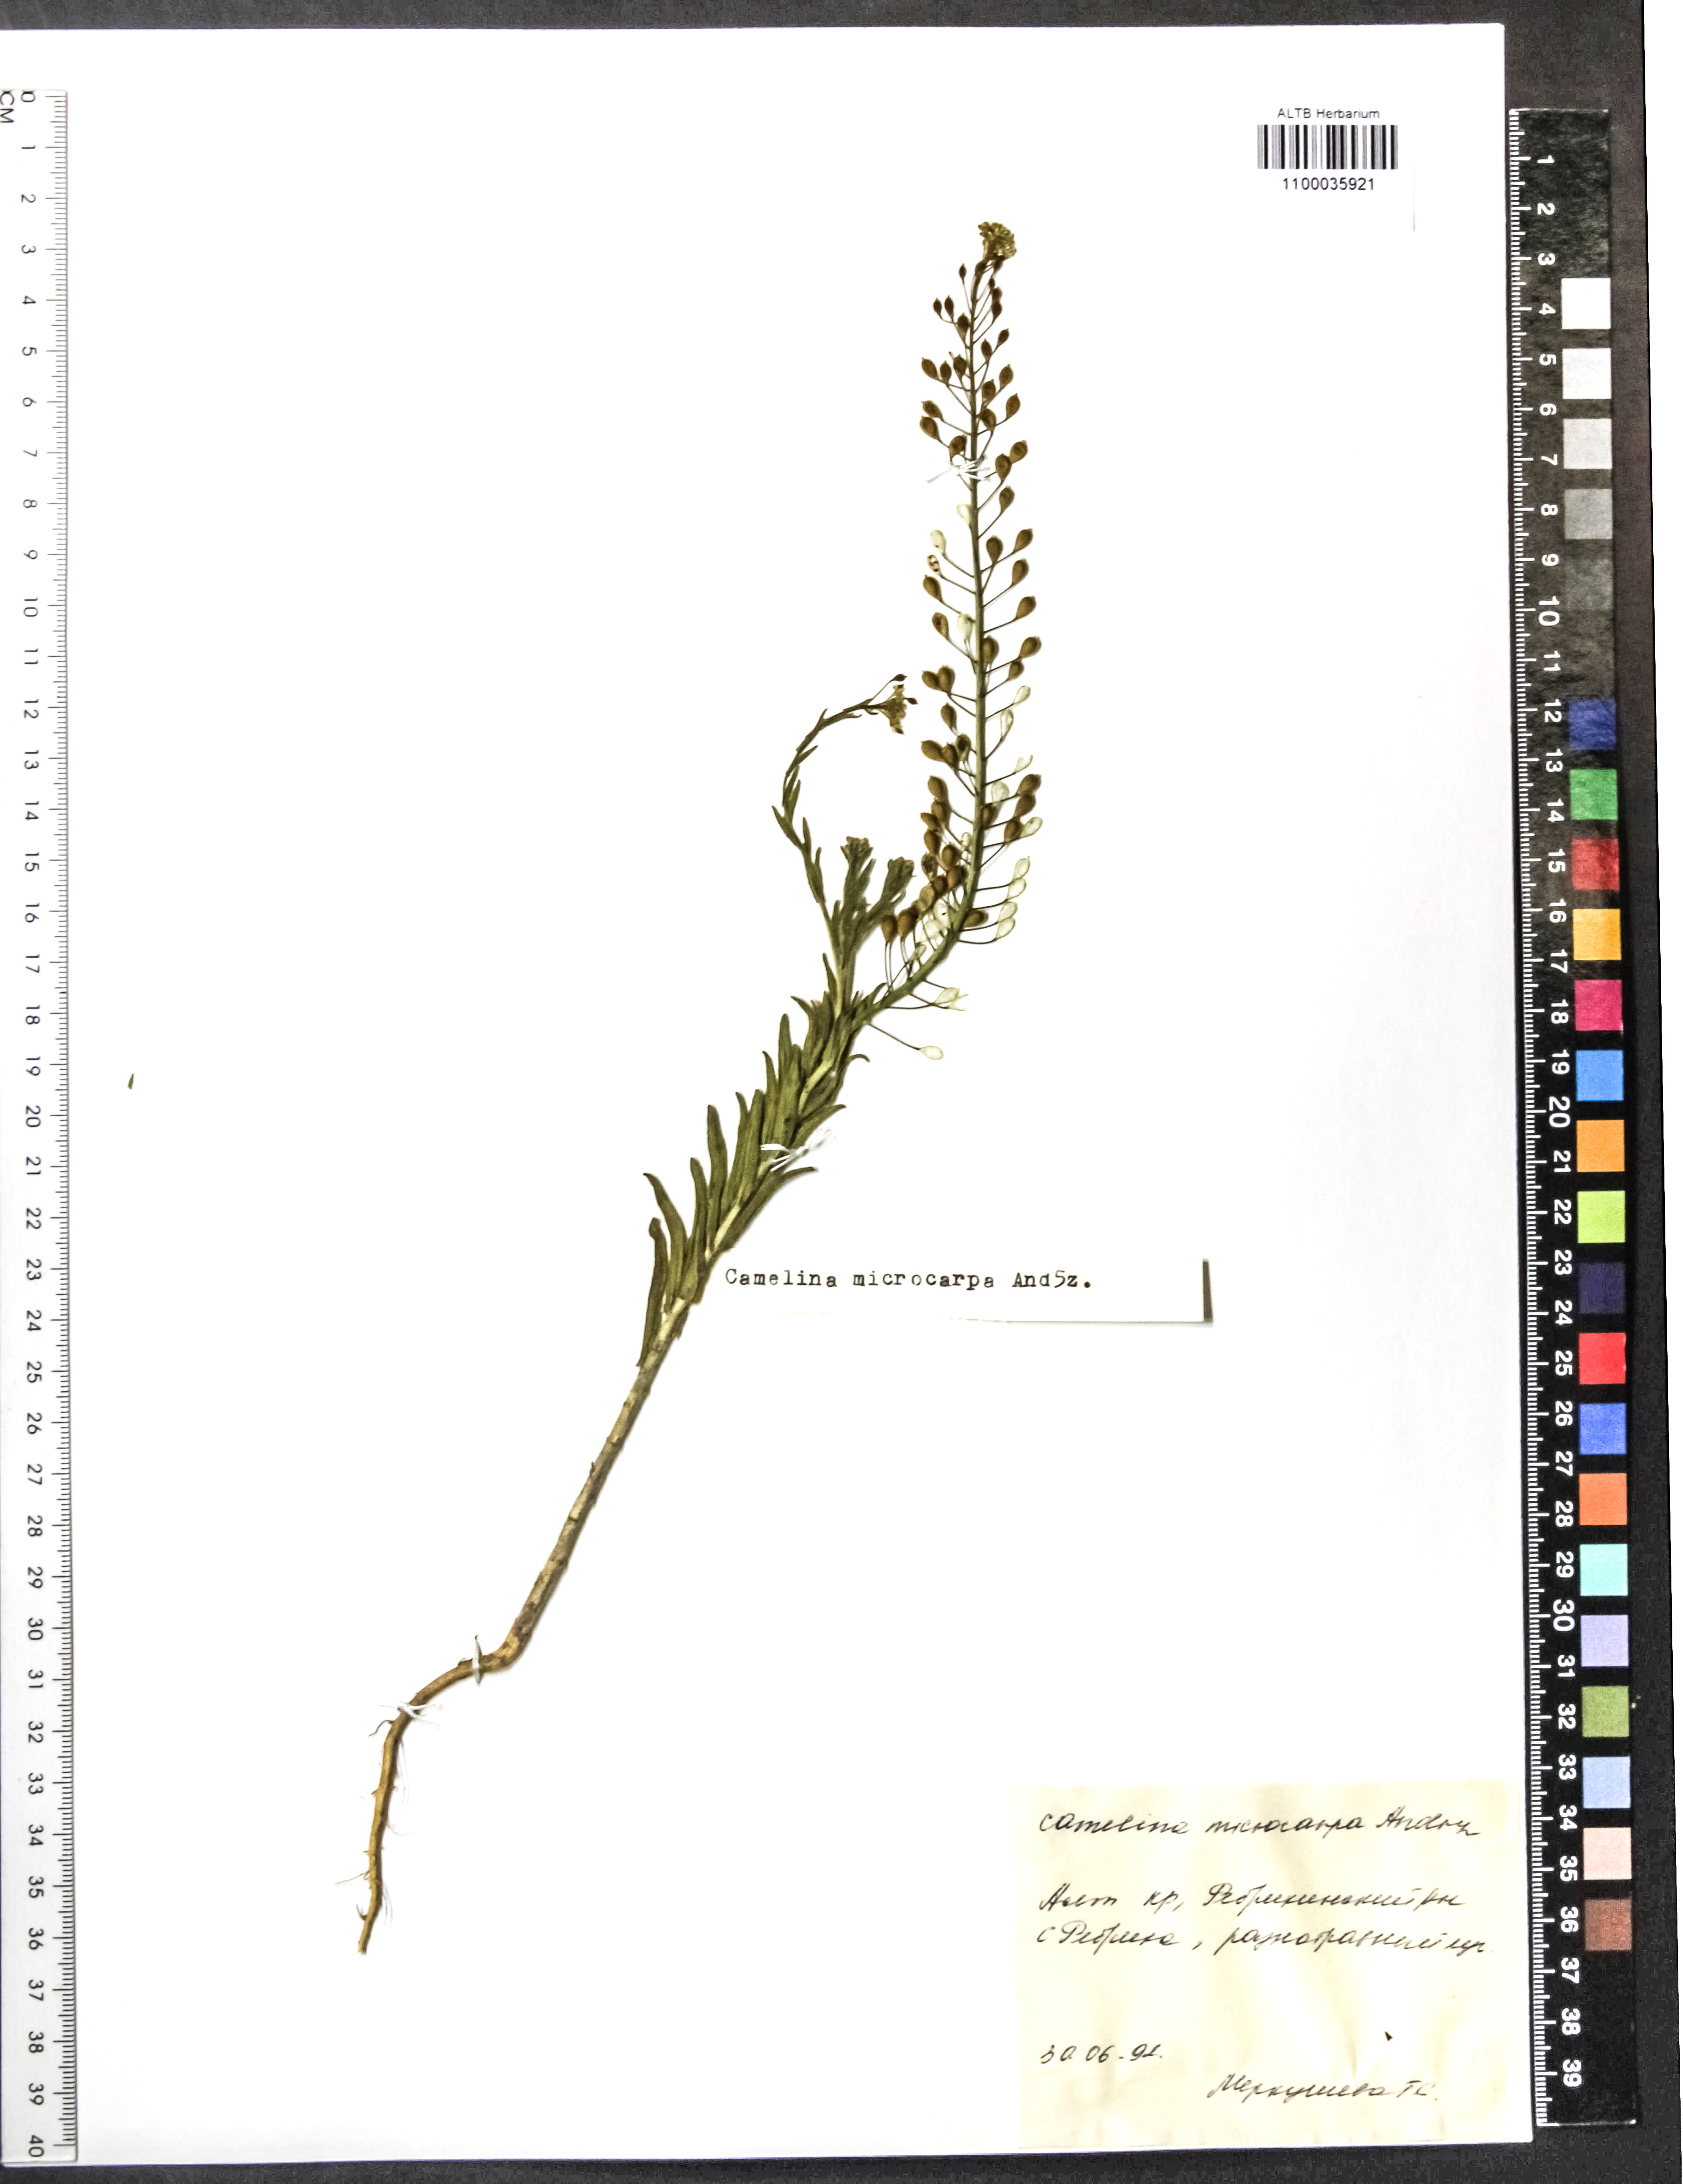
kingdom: Plantae
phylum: Tracheophyta
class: Magnoliopsida
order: Brassicales
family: Brassicaceae
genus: Camelina
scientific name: Camelina microcarpa
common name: Lesser gold-of-pleasure
